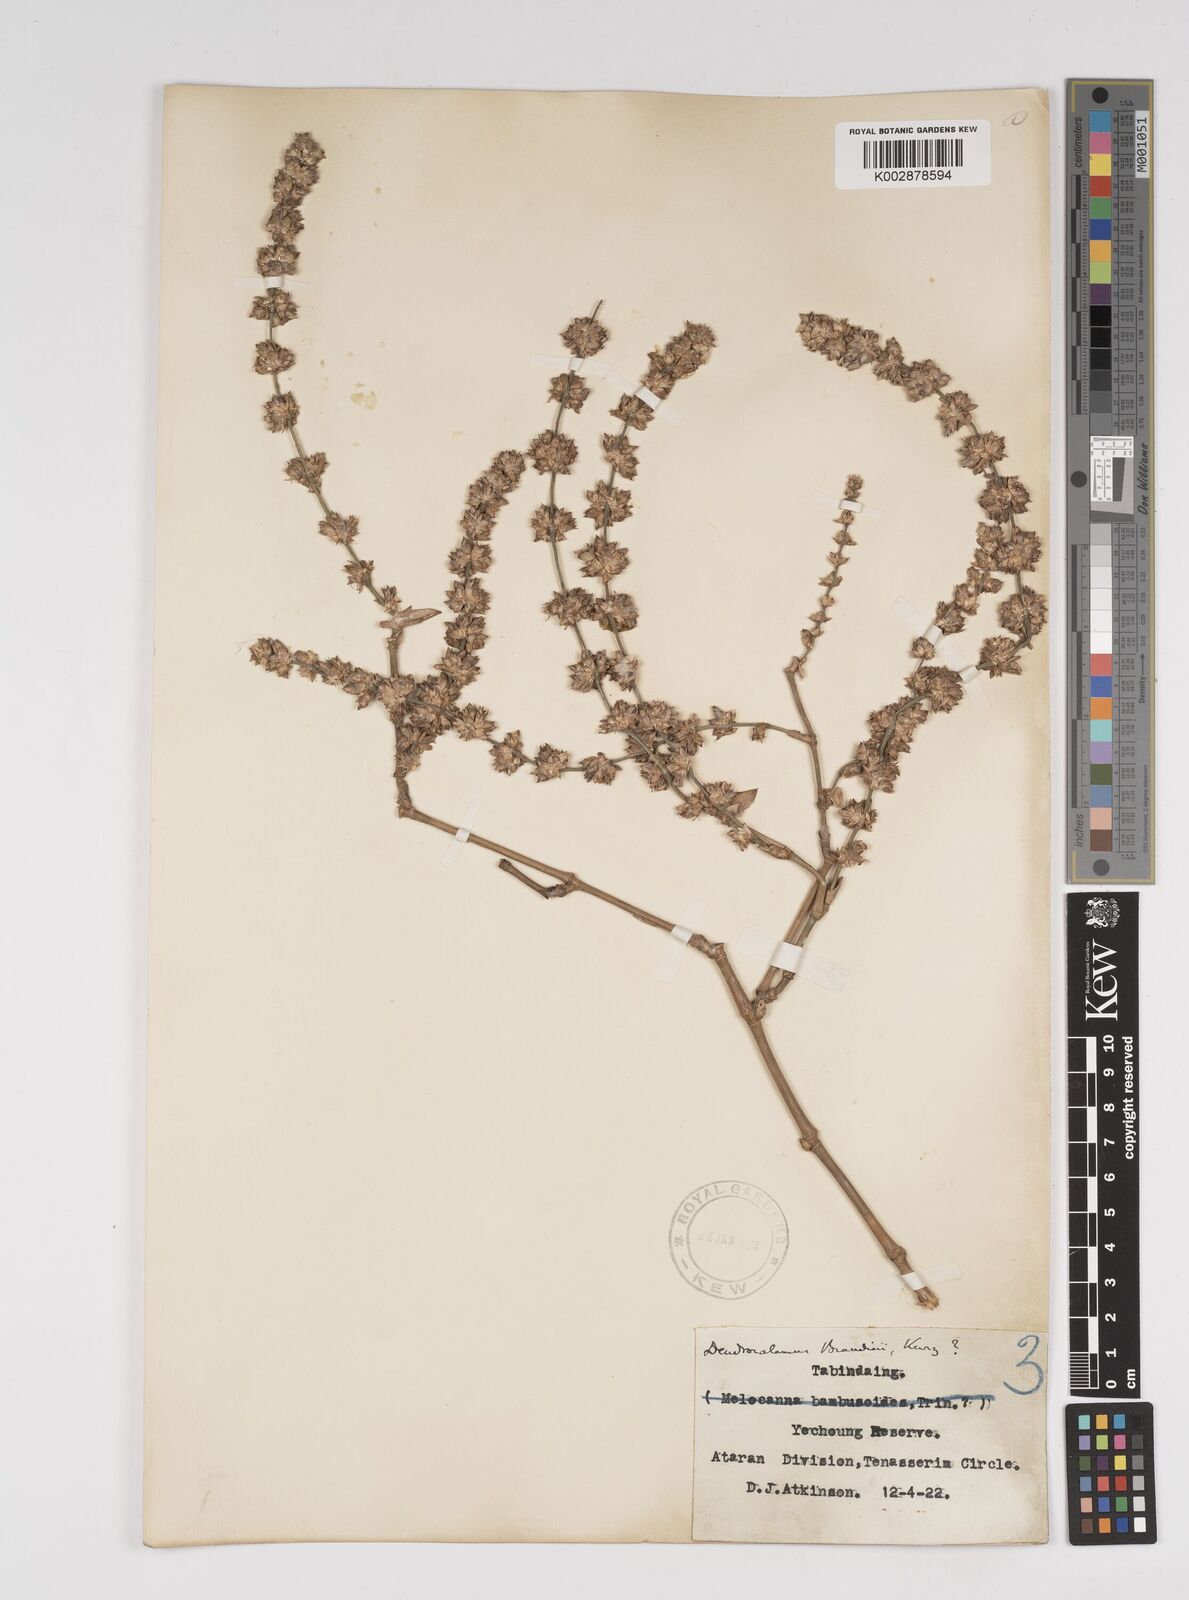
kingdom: Plantae
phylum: Tracheophyta
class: Liliopsida
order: Poales
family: Poaceae
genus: Dendrocalamus
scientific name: Dendrocalamus brandisii
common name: Velvetleaf bamboo
